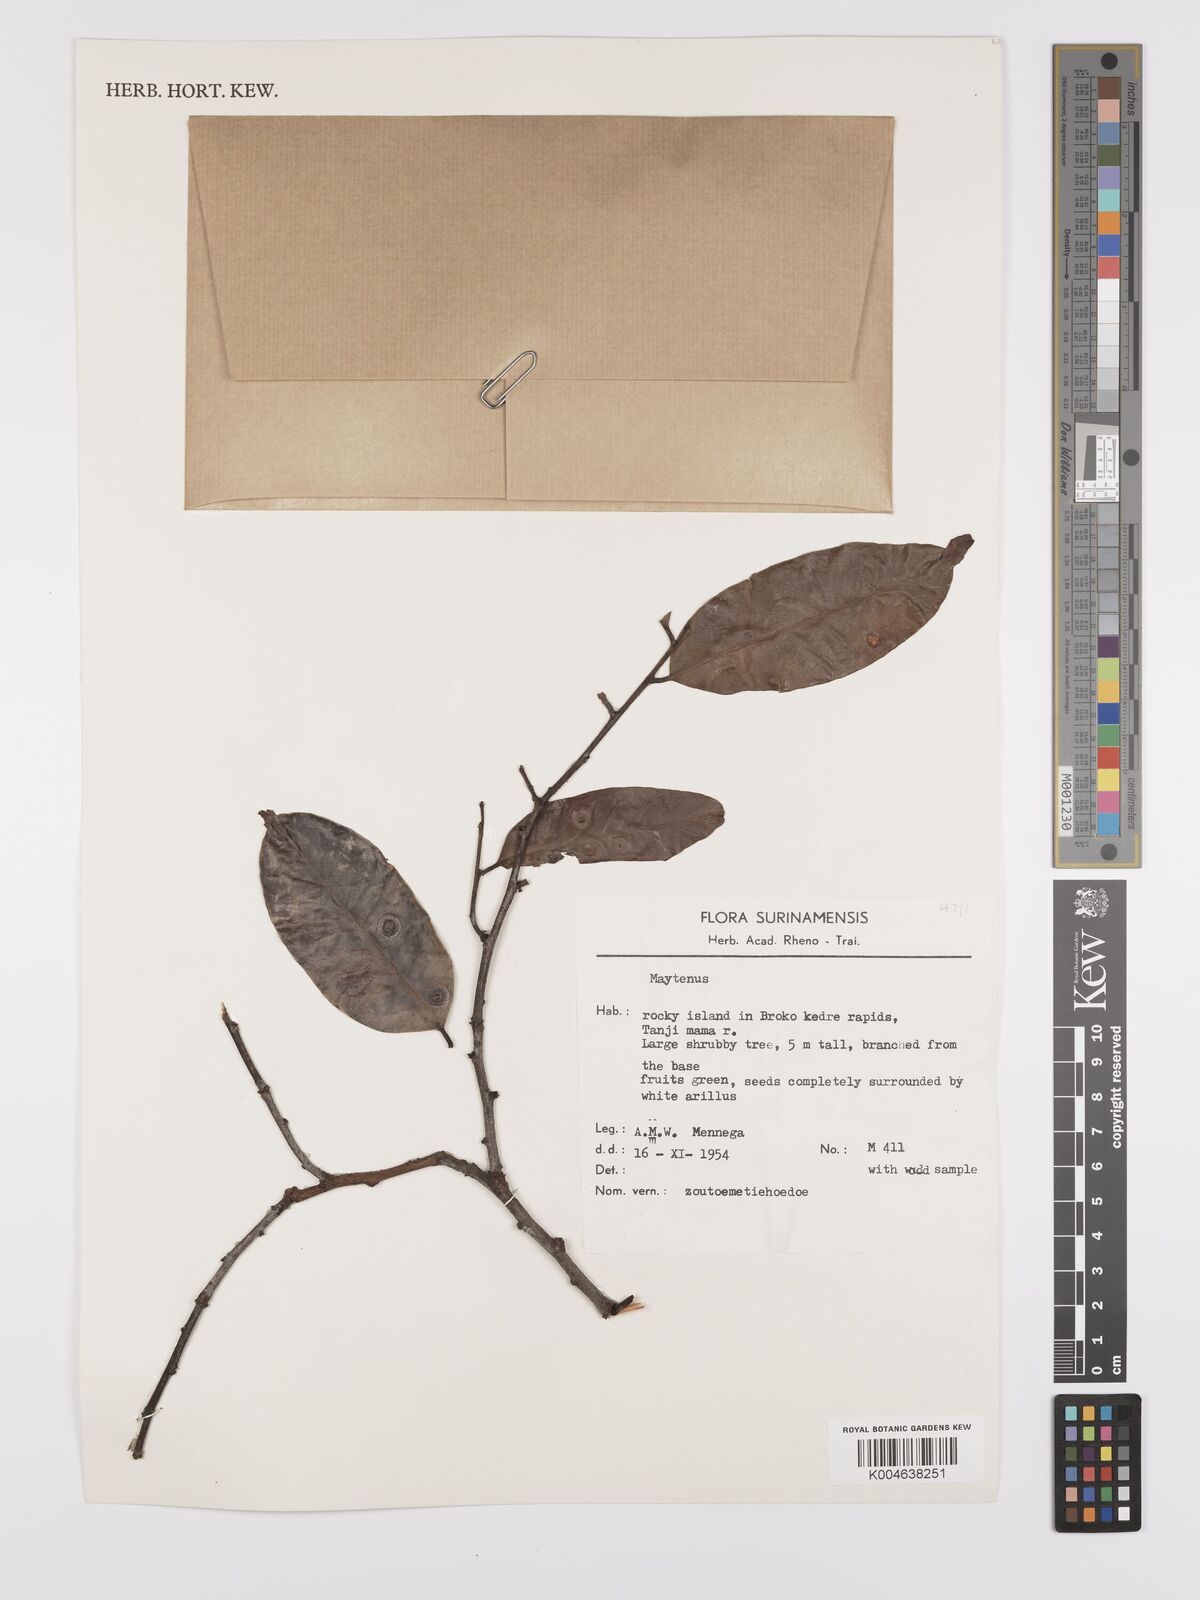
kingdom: Plantae
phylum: Tracheophyta
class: Magnoliopsida
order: Celastrales
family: Celastraceae
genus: Maytenus
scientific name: Maytenus
